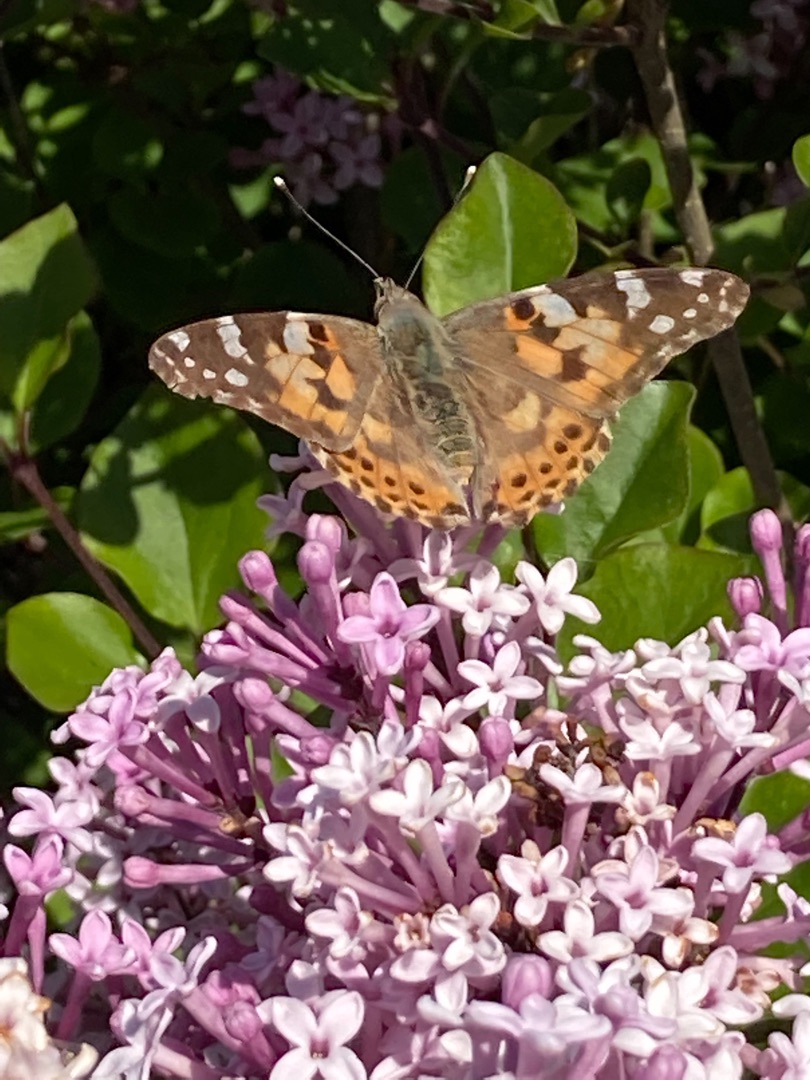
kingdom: Animalia
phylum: Arthropoda
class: Insecta
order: Lepidoptera
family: Nymphalidae
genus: Vanessa
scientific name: Vanessa cardui
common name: Tidselsommerfugl
